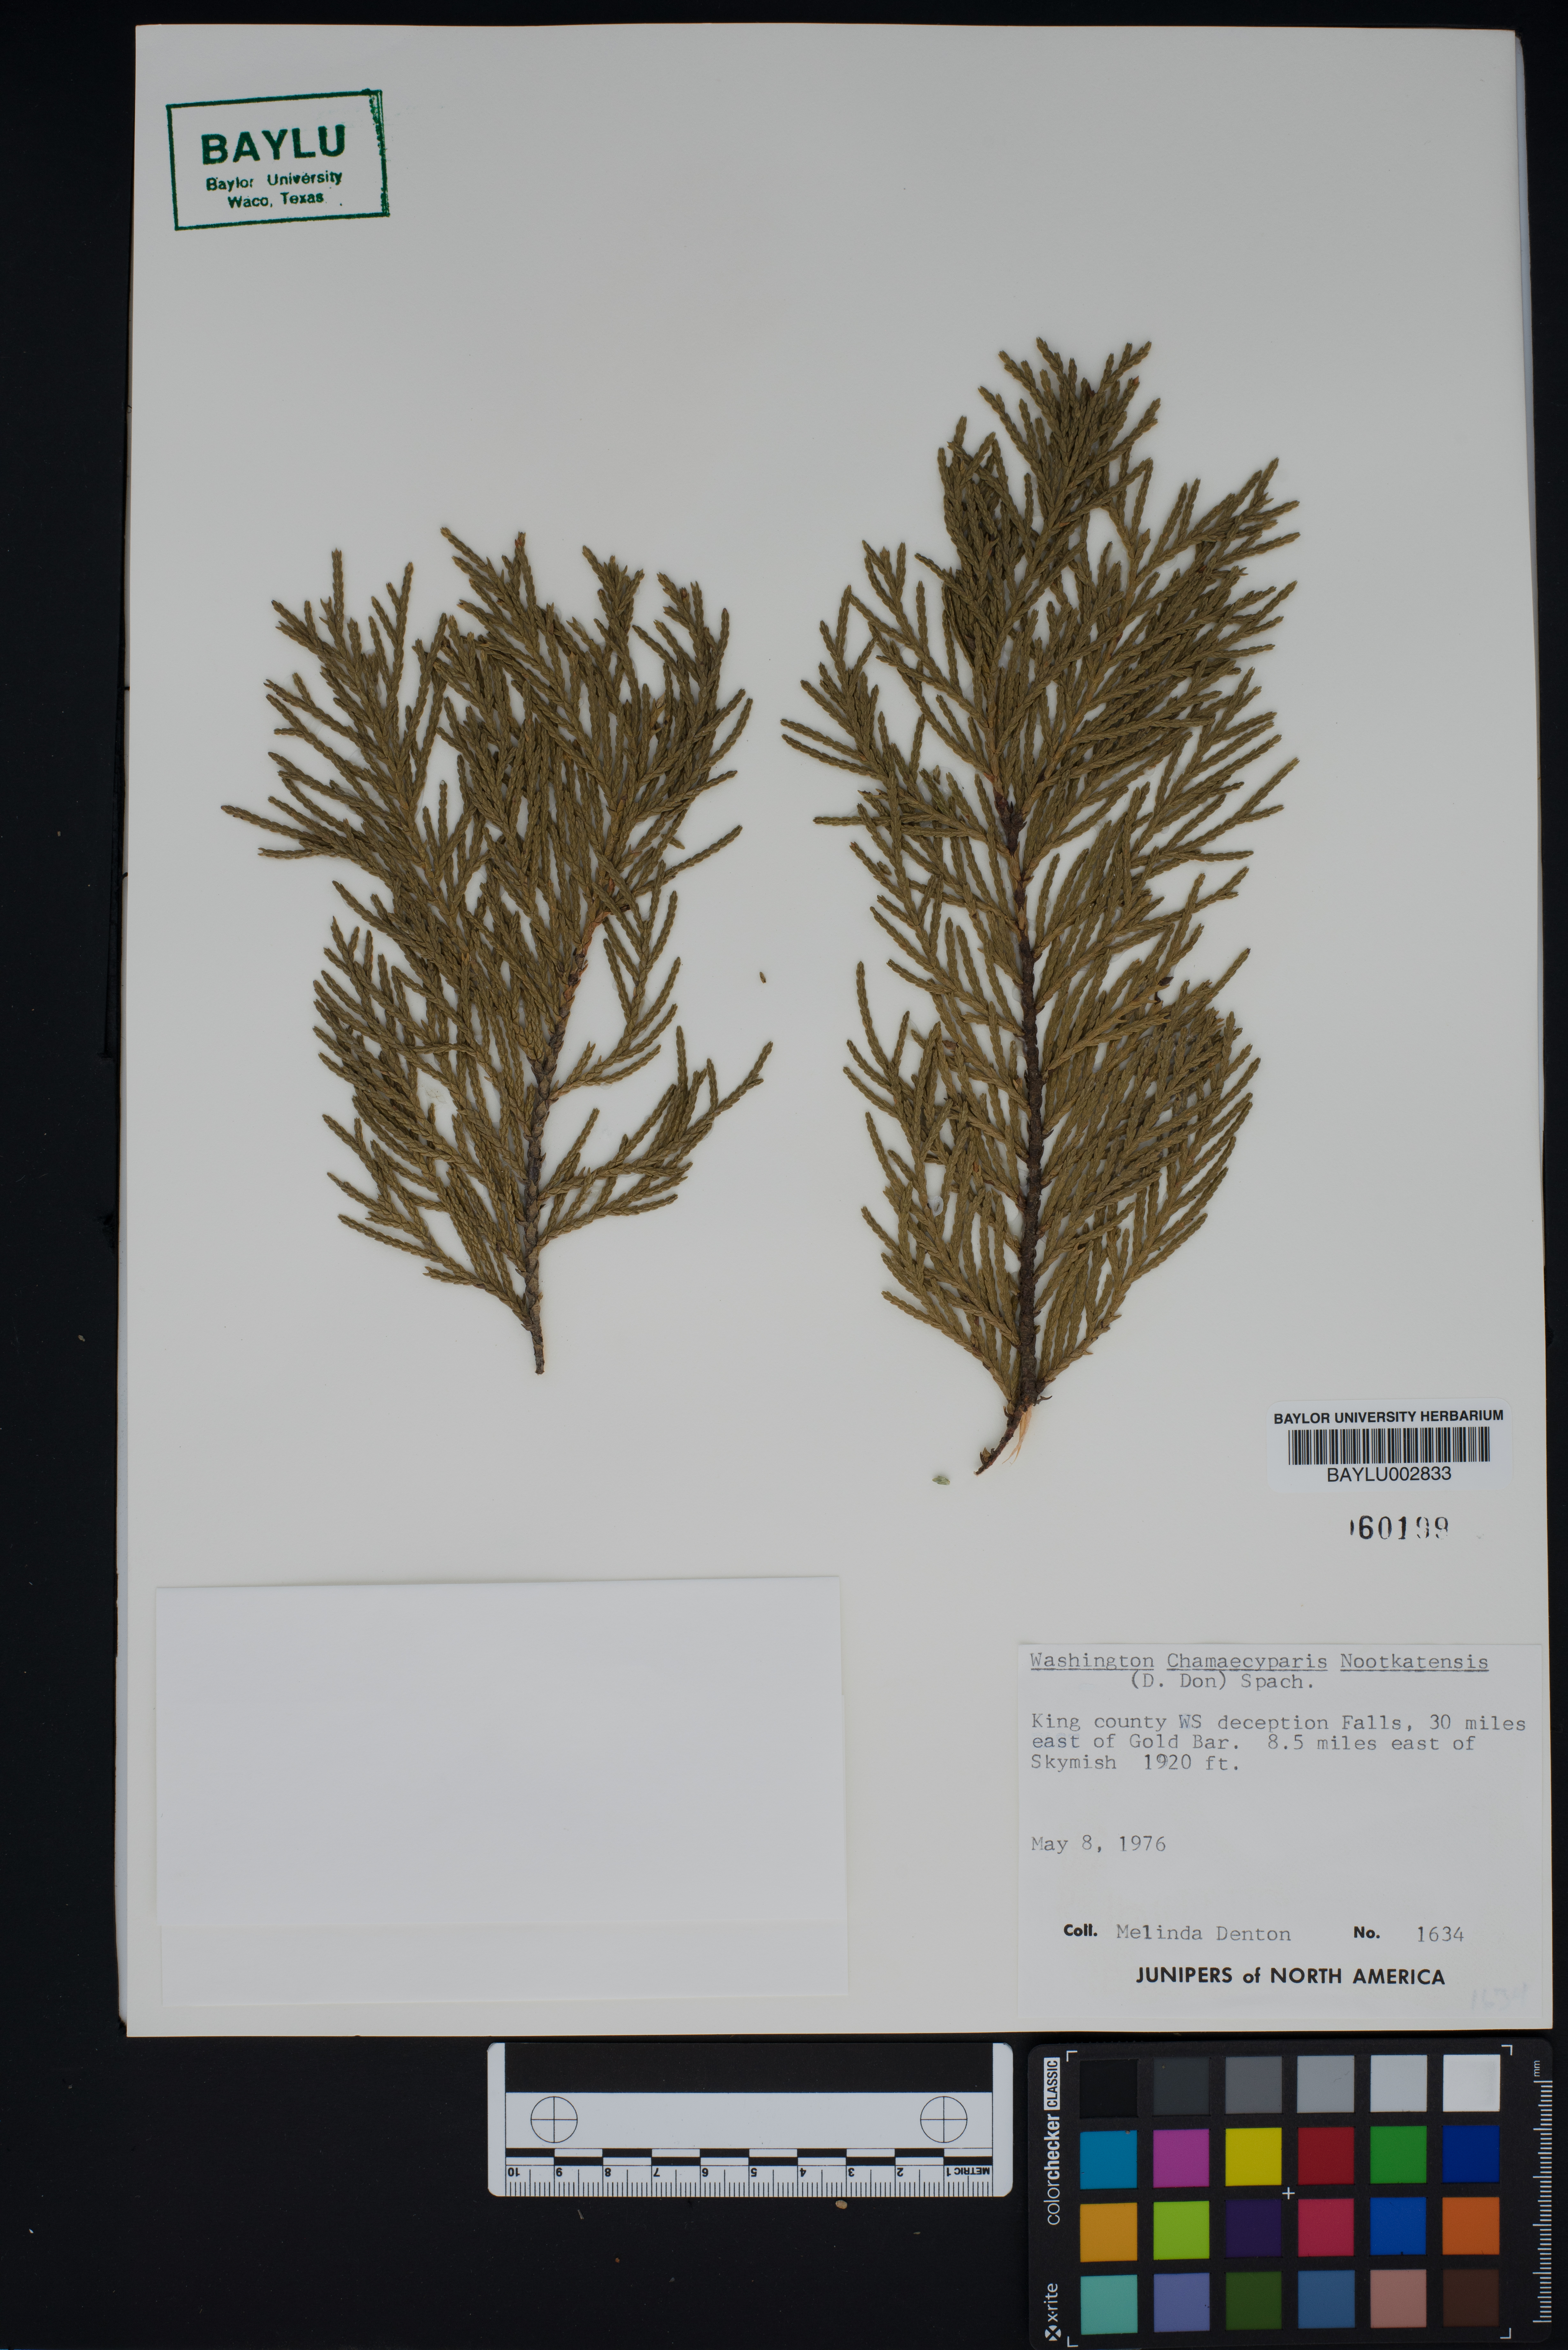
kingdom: Plantae
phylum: Tracheophyta
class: Pinopsida
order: Pinales
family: Cupressaceae
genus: Xanthocyparis
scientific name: Xanthocyparis nootkatensis
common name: Nootka cypress
